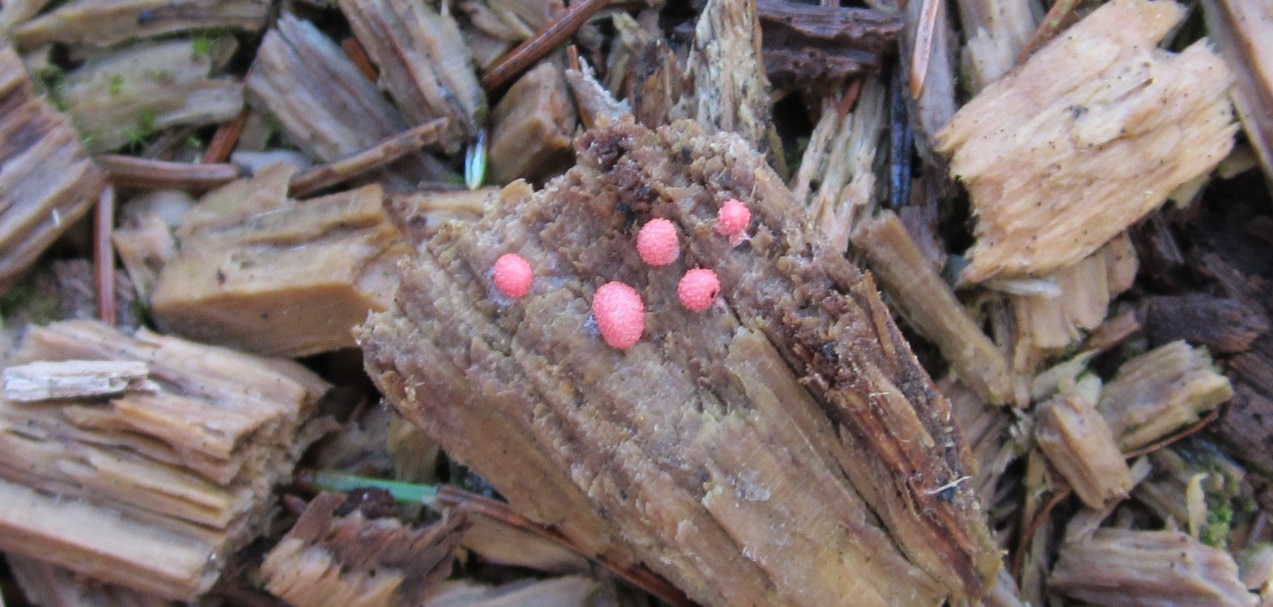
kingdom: Protozoa
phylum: Mycetozoa
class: Myxomycetes
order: Cribrariales
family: Tubiferaceae
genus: Lycogala
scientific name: Lycogala epidendrum
